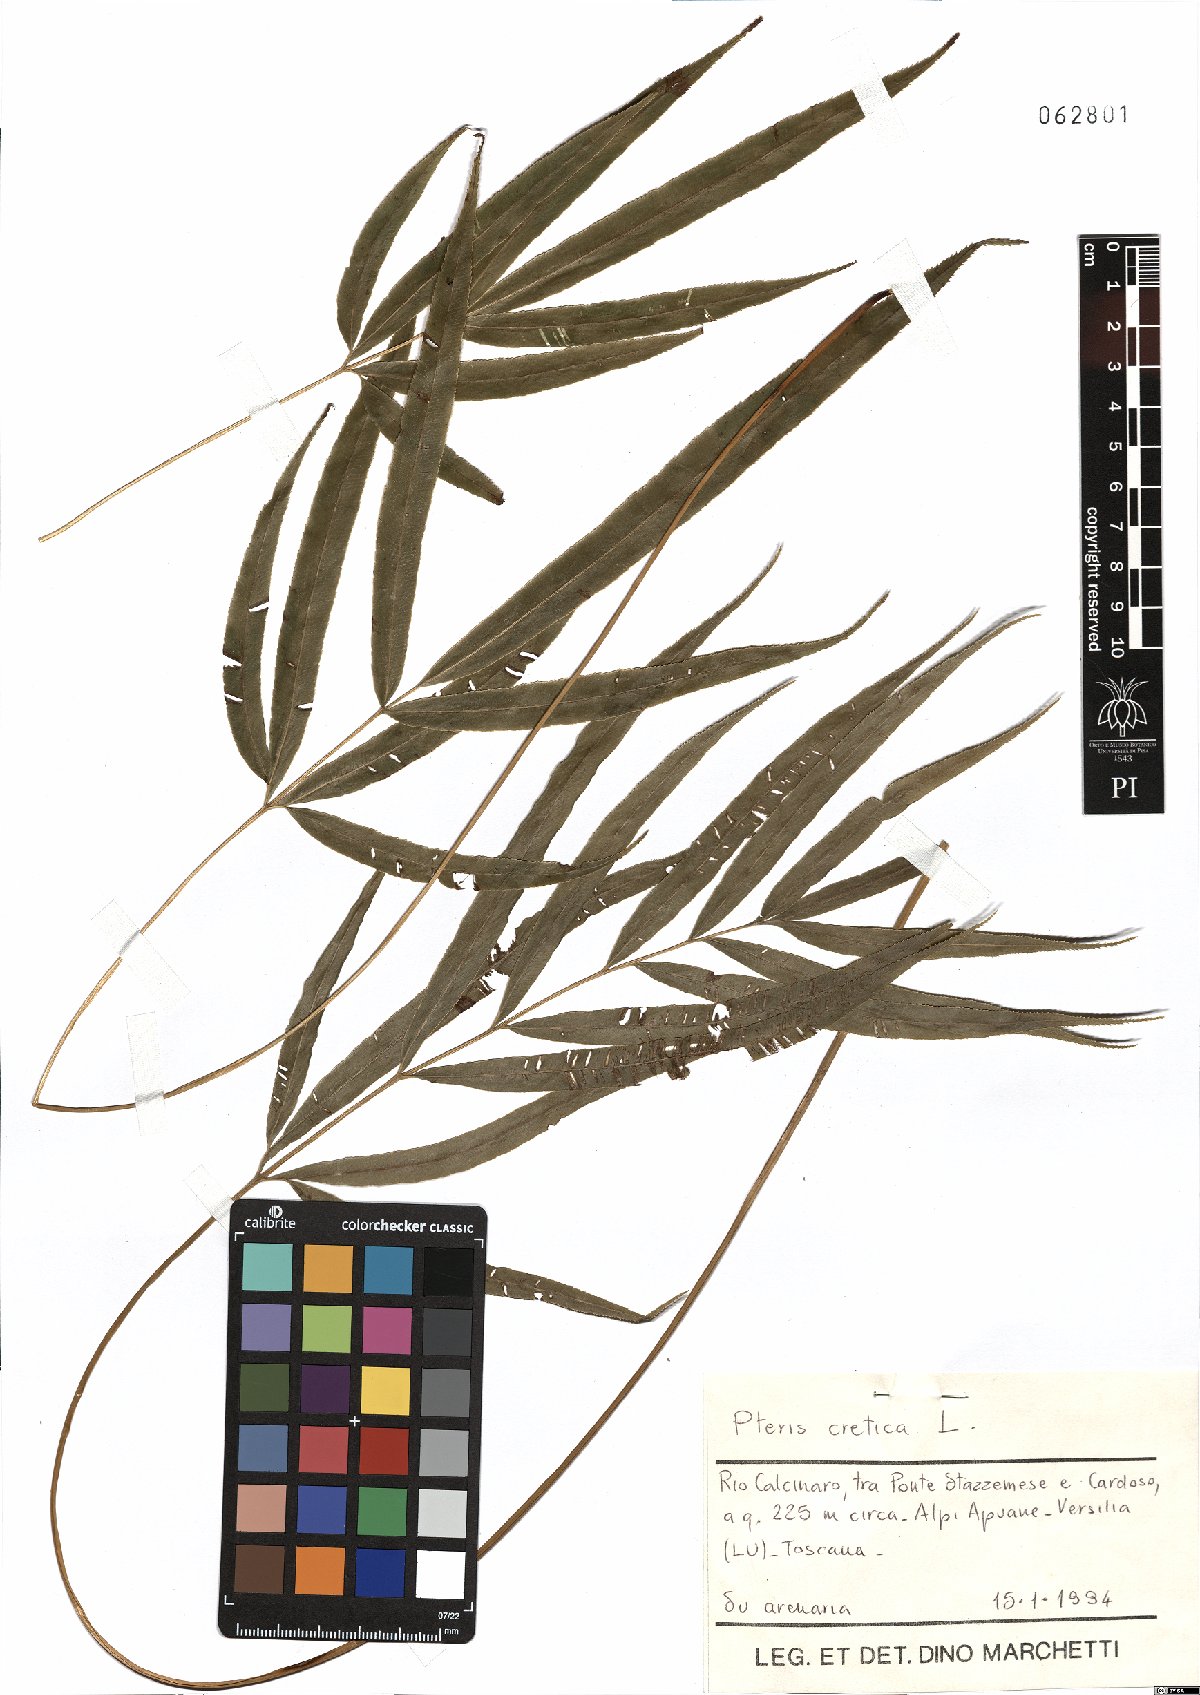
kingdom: Plantae
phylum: Tracheophyta
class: Polypodiopsida
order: Polypodiales
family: Pteridaceae
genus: Pteris
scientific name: Pteris cretica
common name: Ribbon fern
